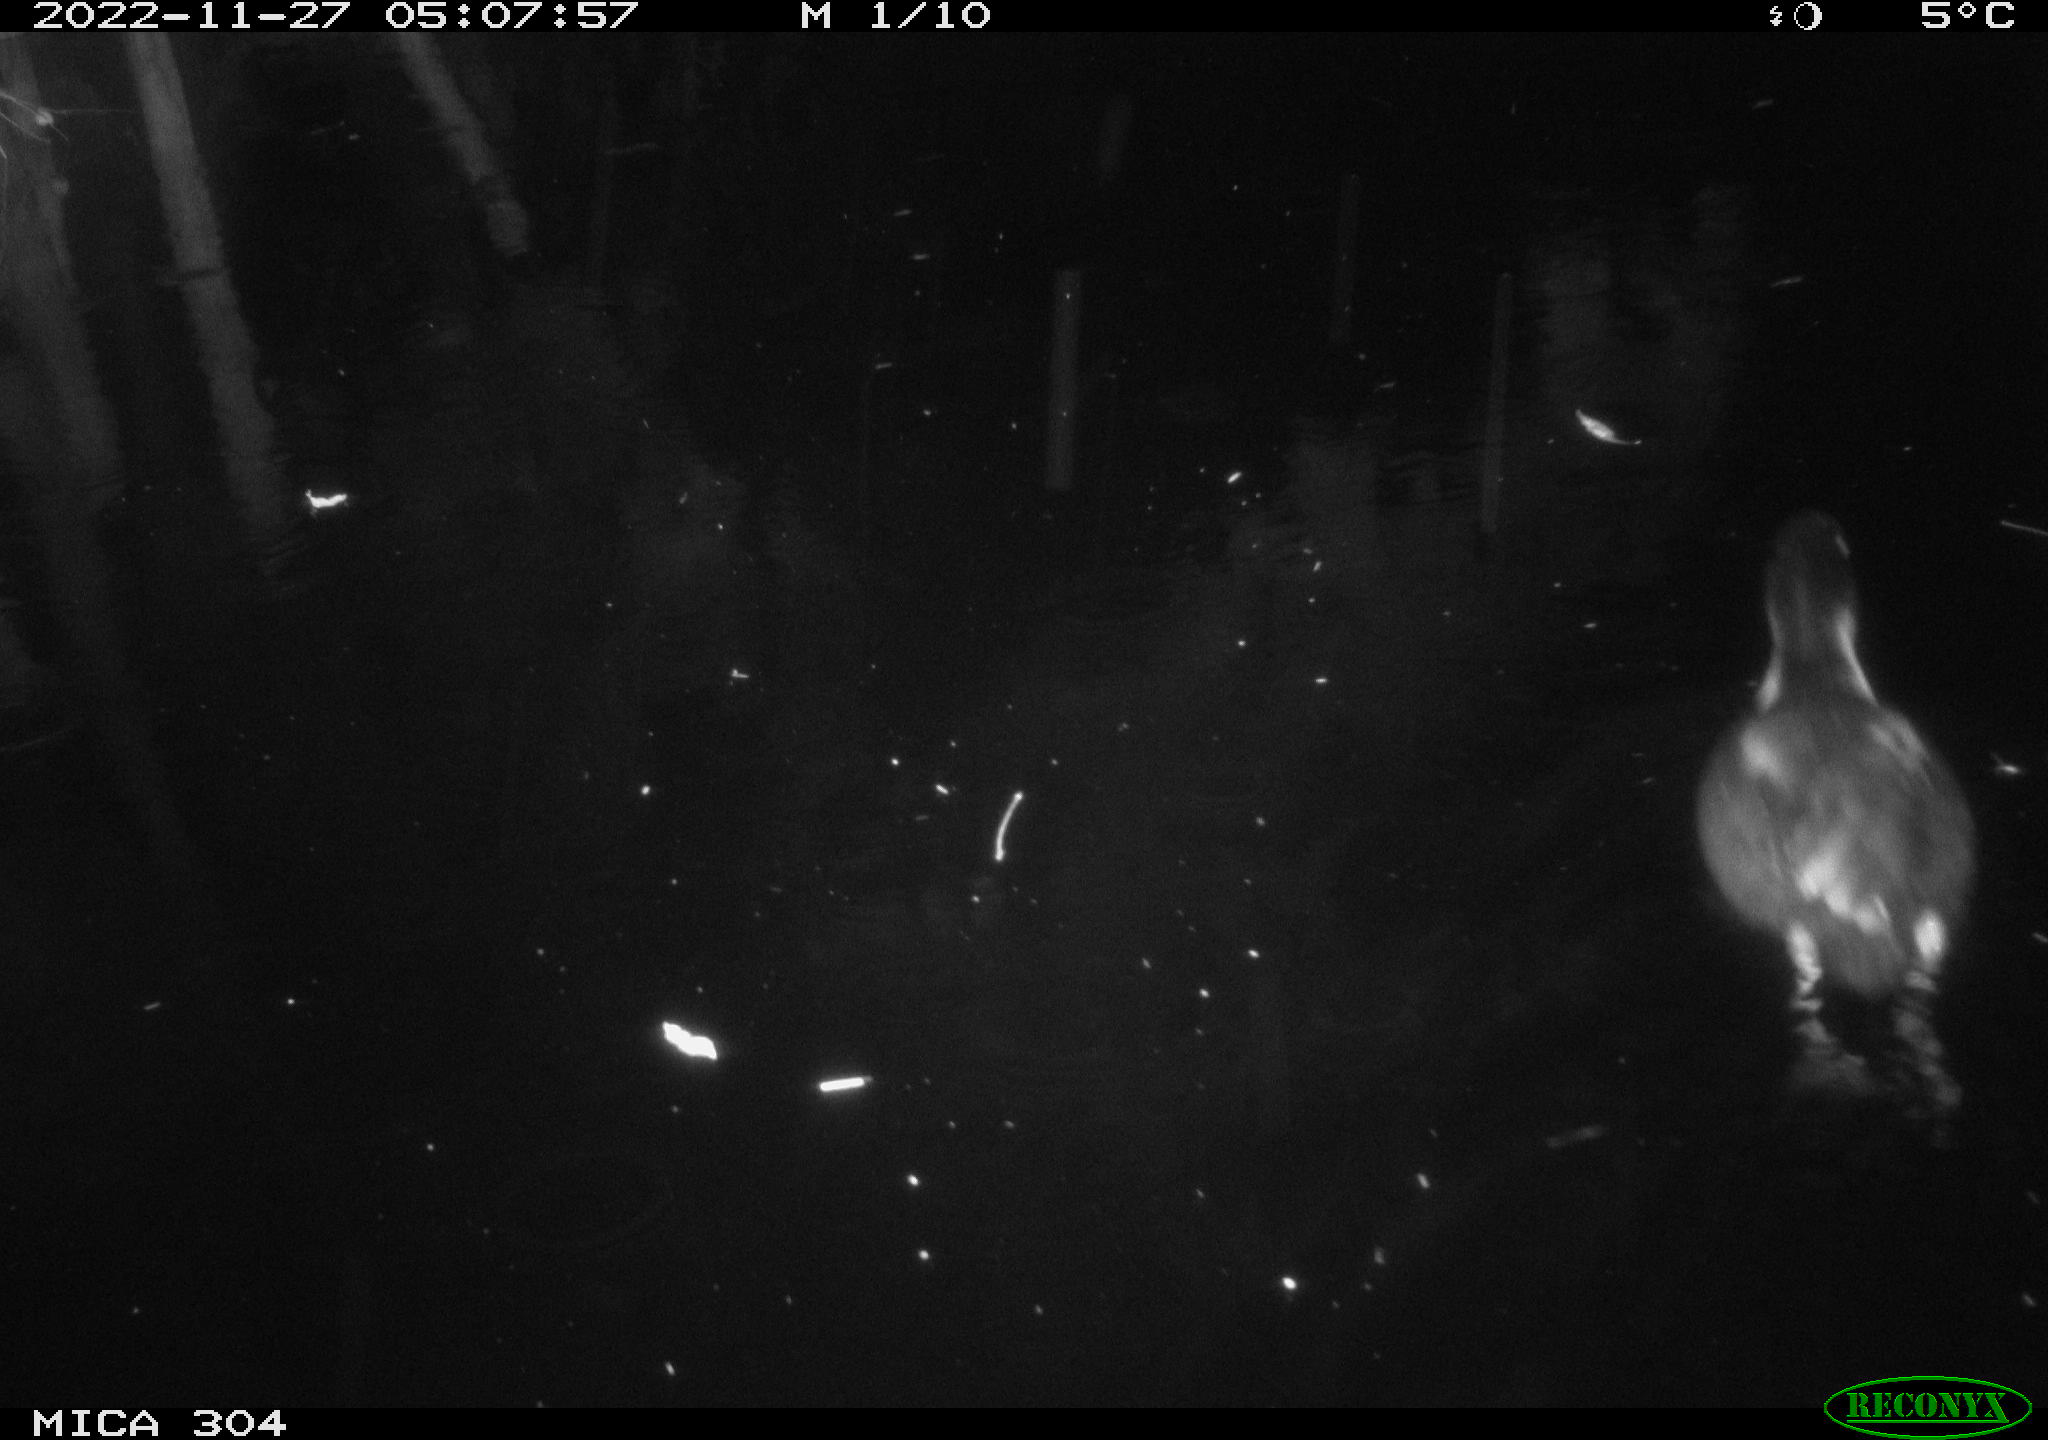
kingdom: Animalia
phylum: Chordata
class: Aves
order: Anseriformes
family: Anatidae
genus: Anas
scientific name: Anas
